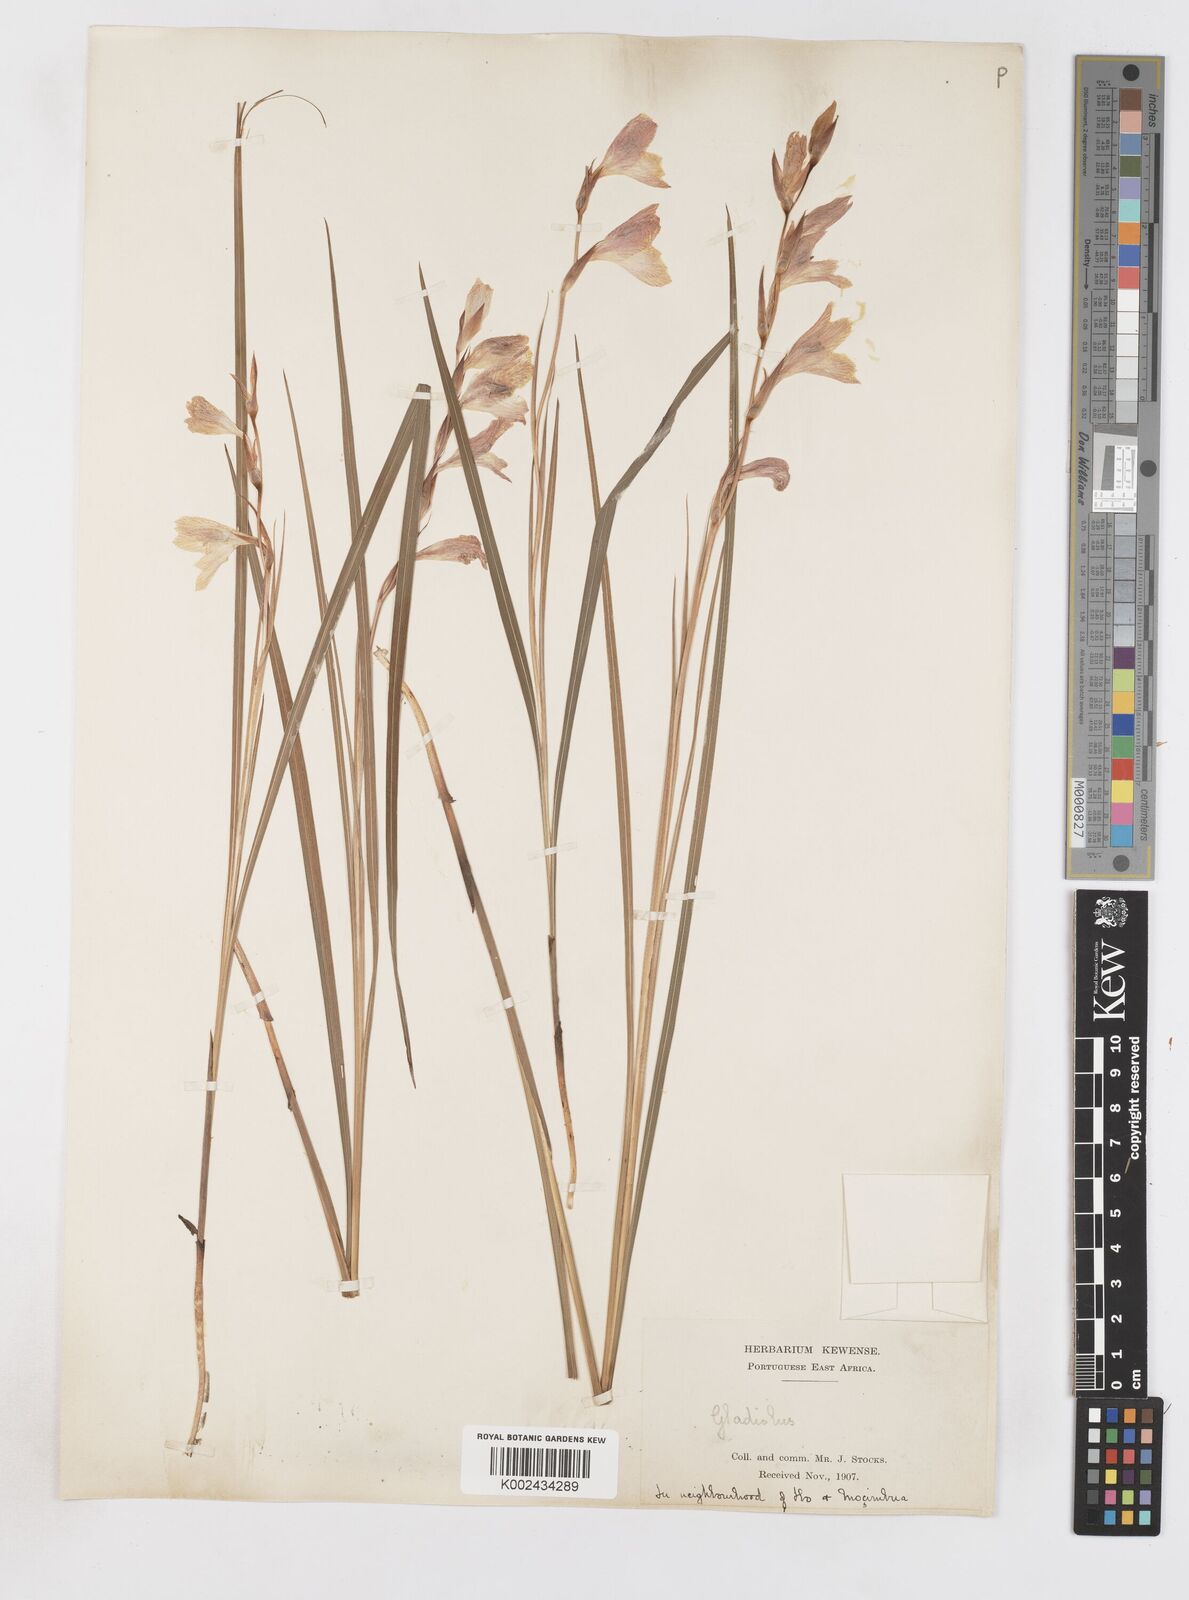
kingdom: Plantae
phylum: Tracheophyta
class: Liliopsida
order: Asparagales
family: Iridaceae
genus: Gladiolus
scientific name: Gladiolus erectiflorus
